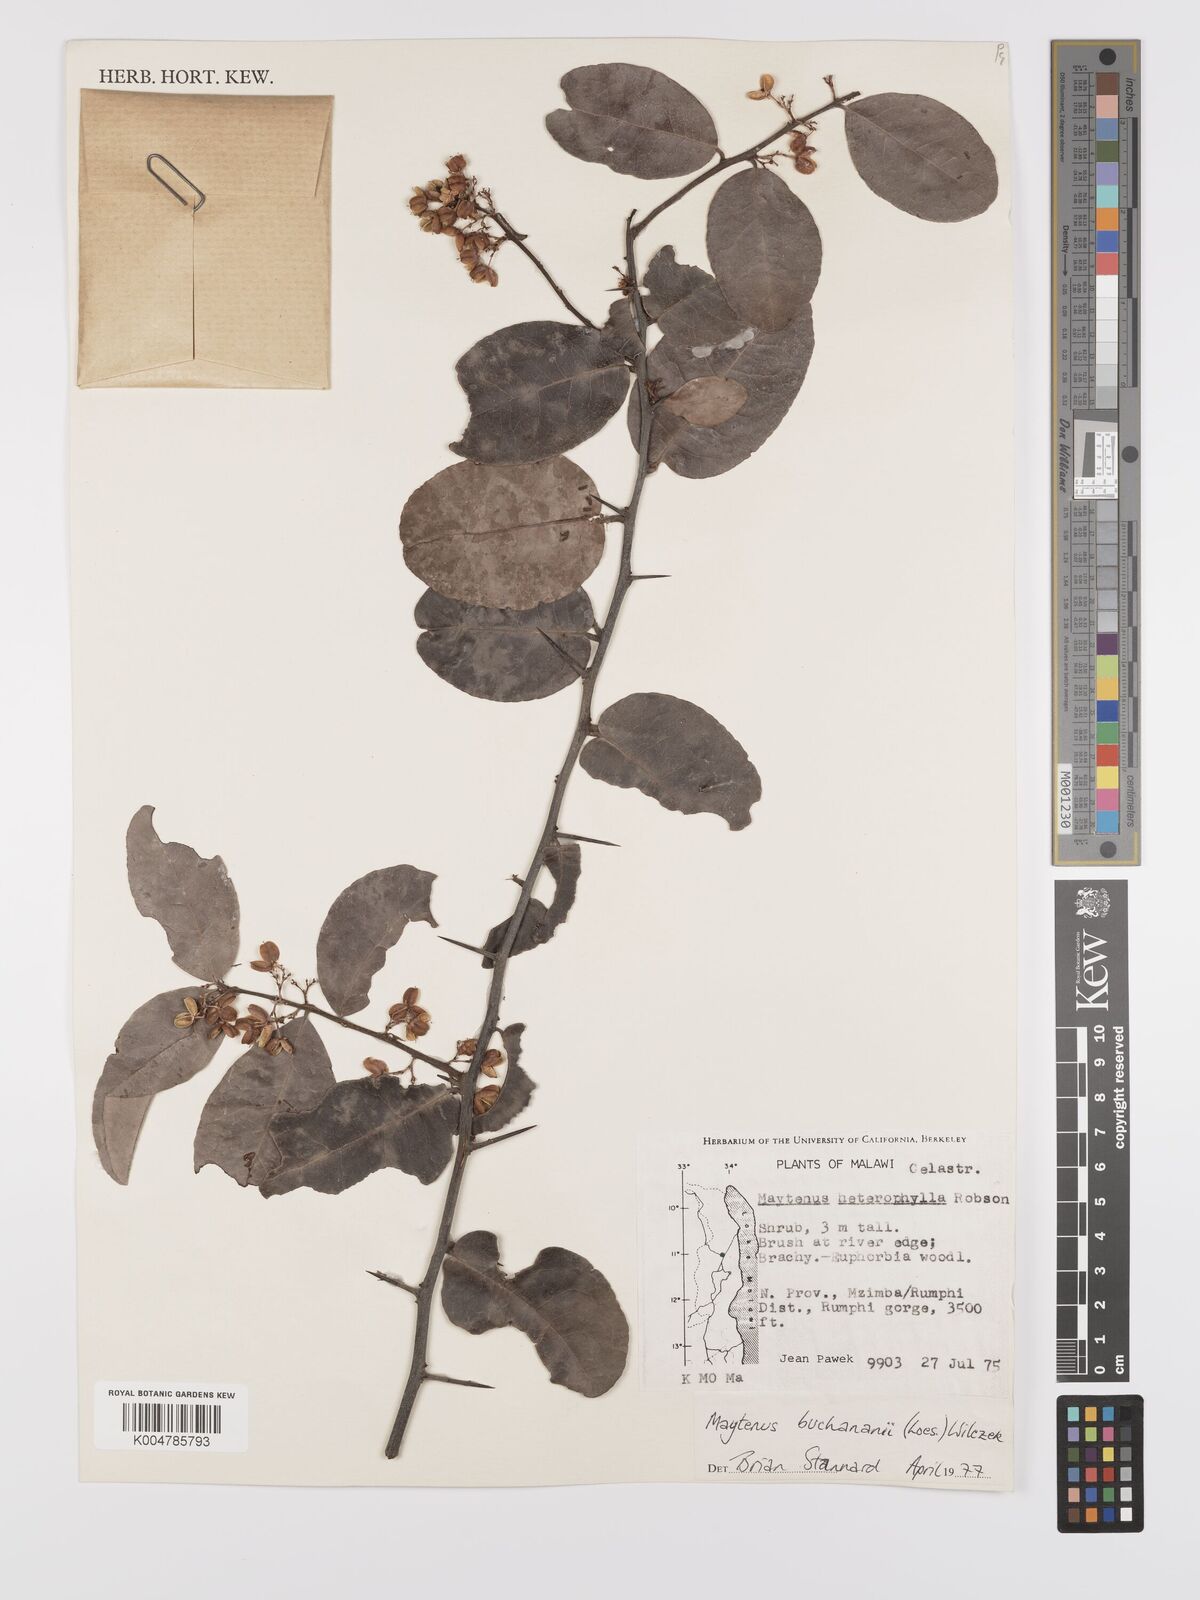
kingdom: Plantae
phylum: Tracheophyta
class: Magnoliopsida
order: Celastrales
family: Celastraceae
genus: Gymnosporia
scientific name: Gymnosporia buchananii
